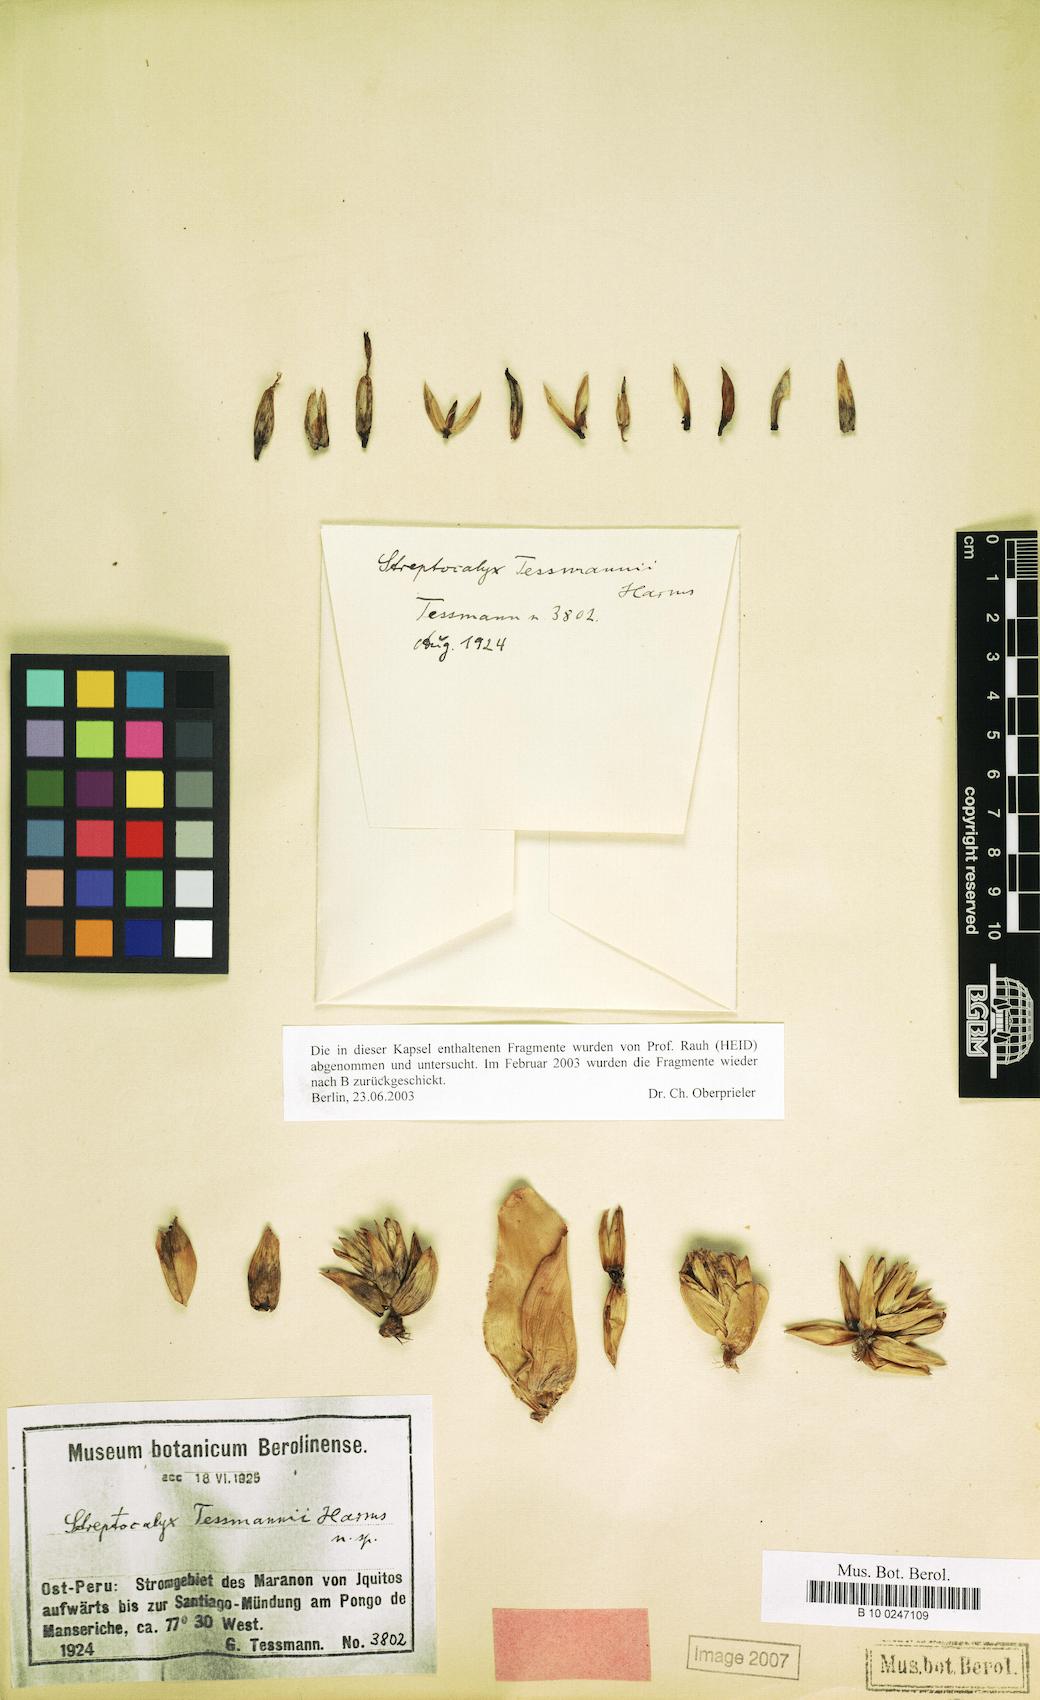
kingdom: Plantae
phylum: Tracheophyta
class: Liliopsida
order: Poales
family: Bromeliaceae
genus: Aechmea
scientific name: Aechmea poitaei
